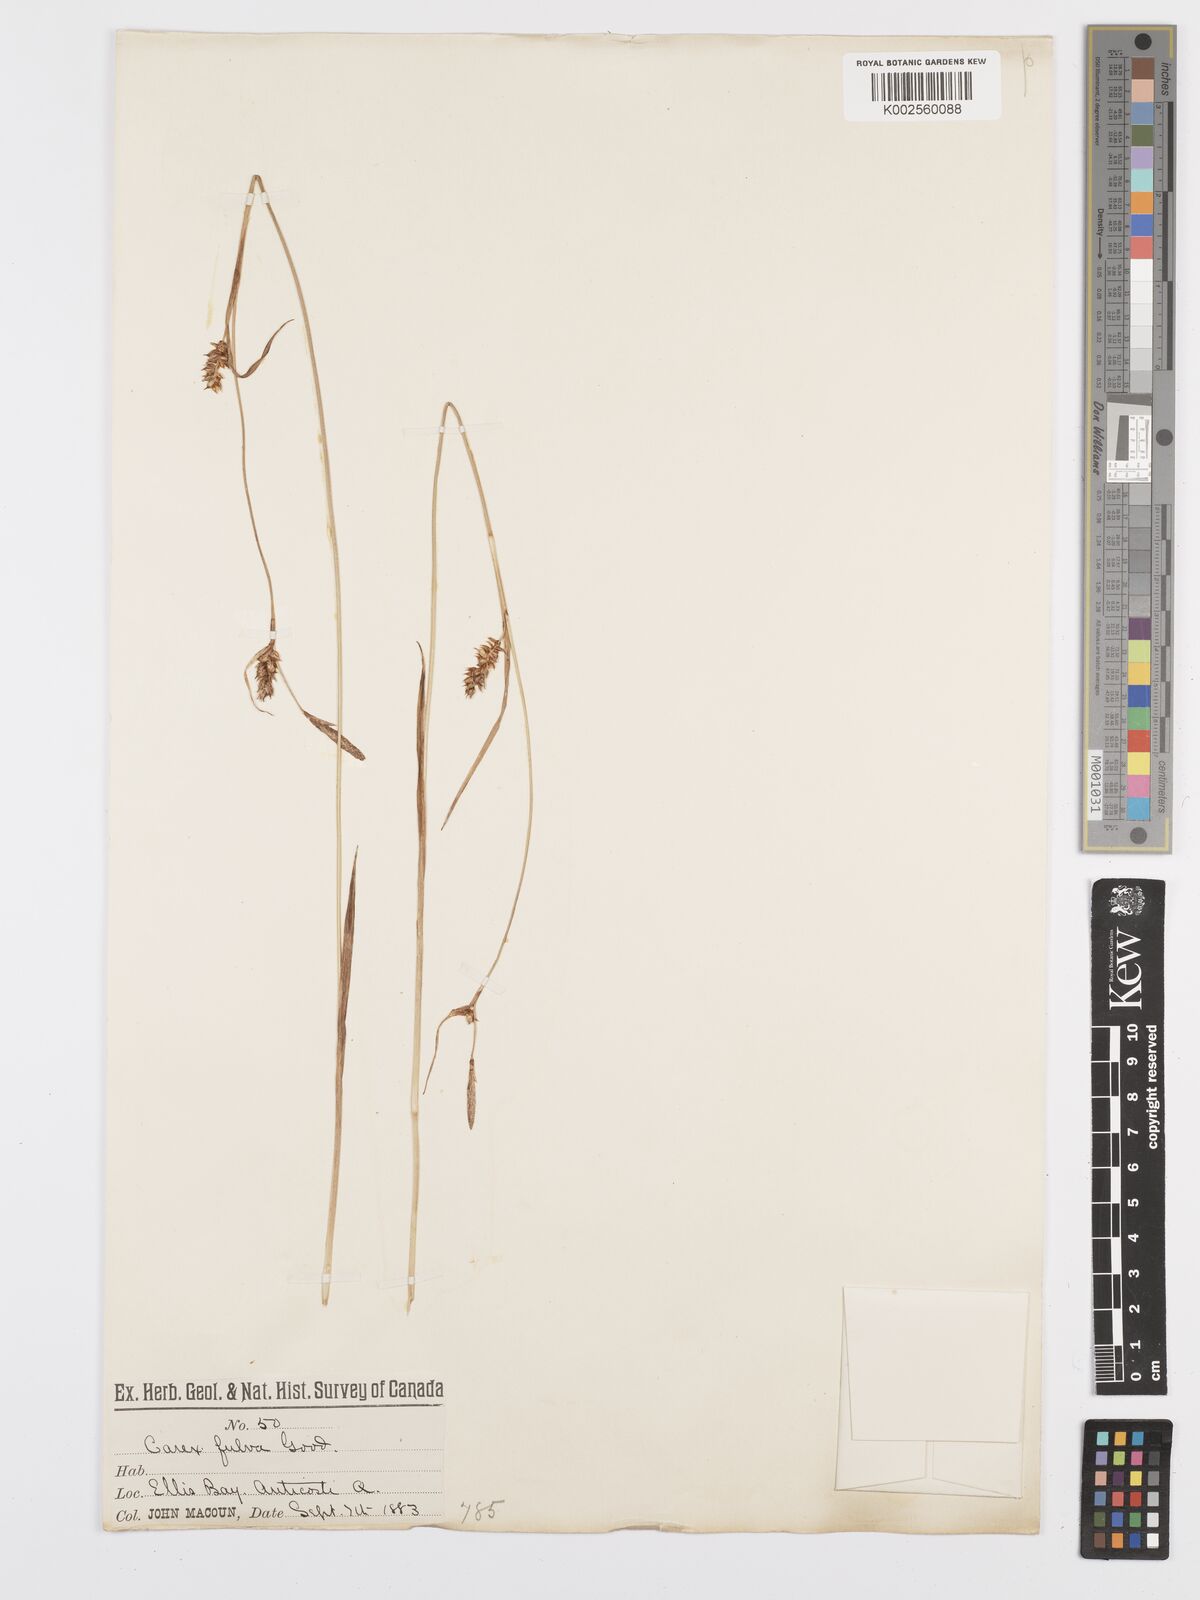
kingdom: Plantae
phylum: Tracheophyta
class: Liliopsida
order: Poales
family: Cyperaceae
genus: Carex
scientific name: Carex hostiana
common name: Tawny sedge
